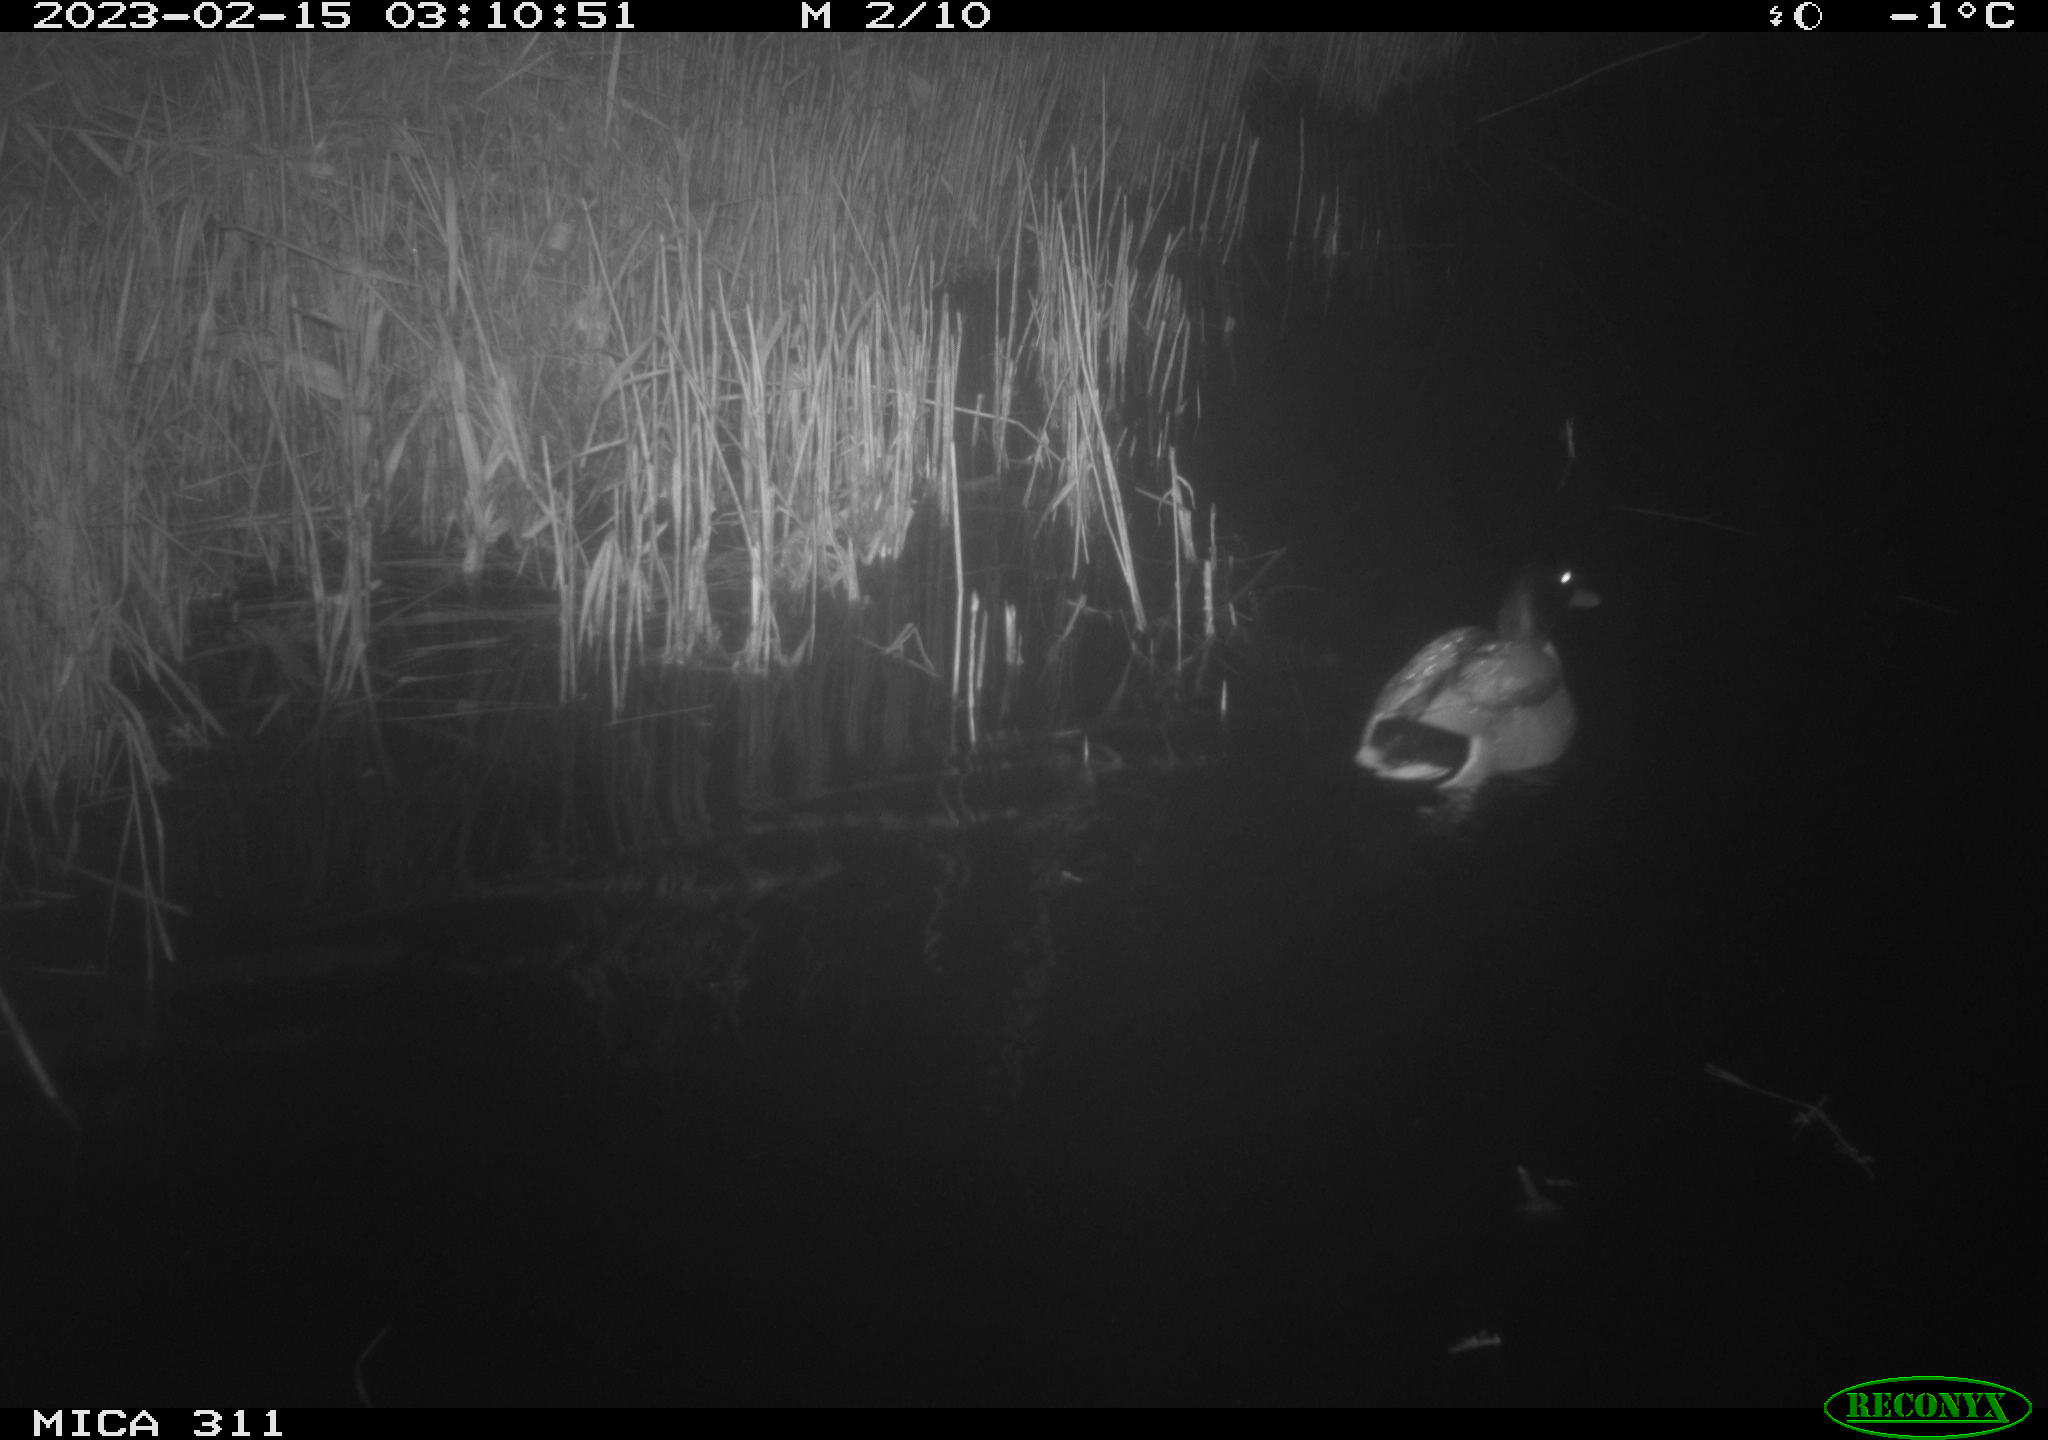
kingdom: Animalia
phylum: Chordata
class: Aves
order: Anseriformes
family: Anatidae
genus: Anas
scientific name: Anas
